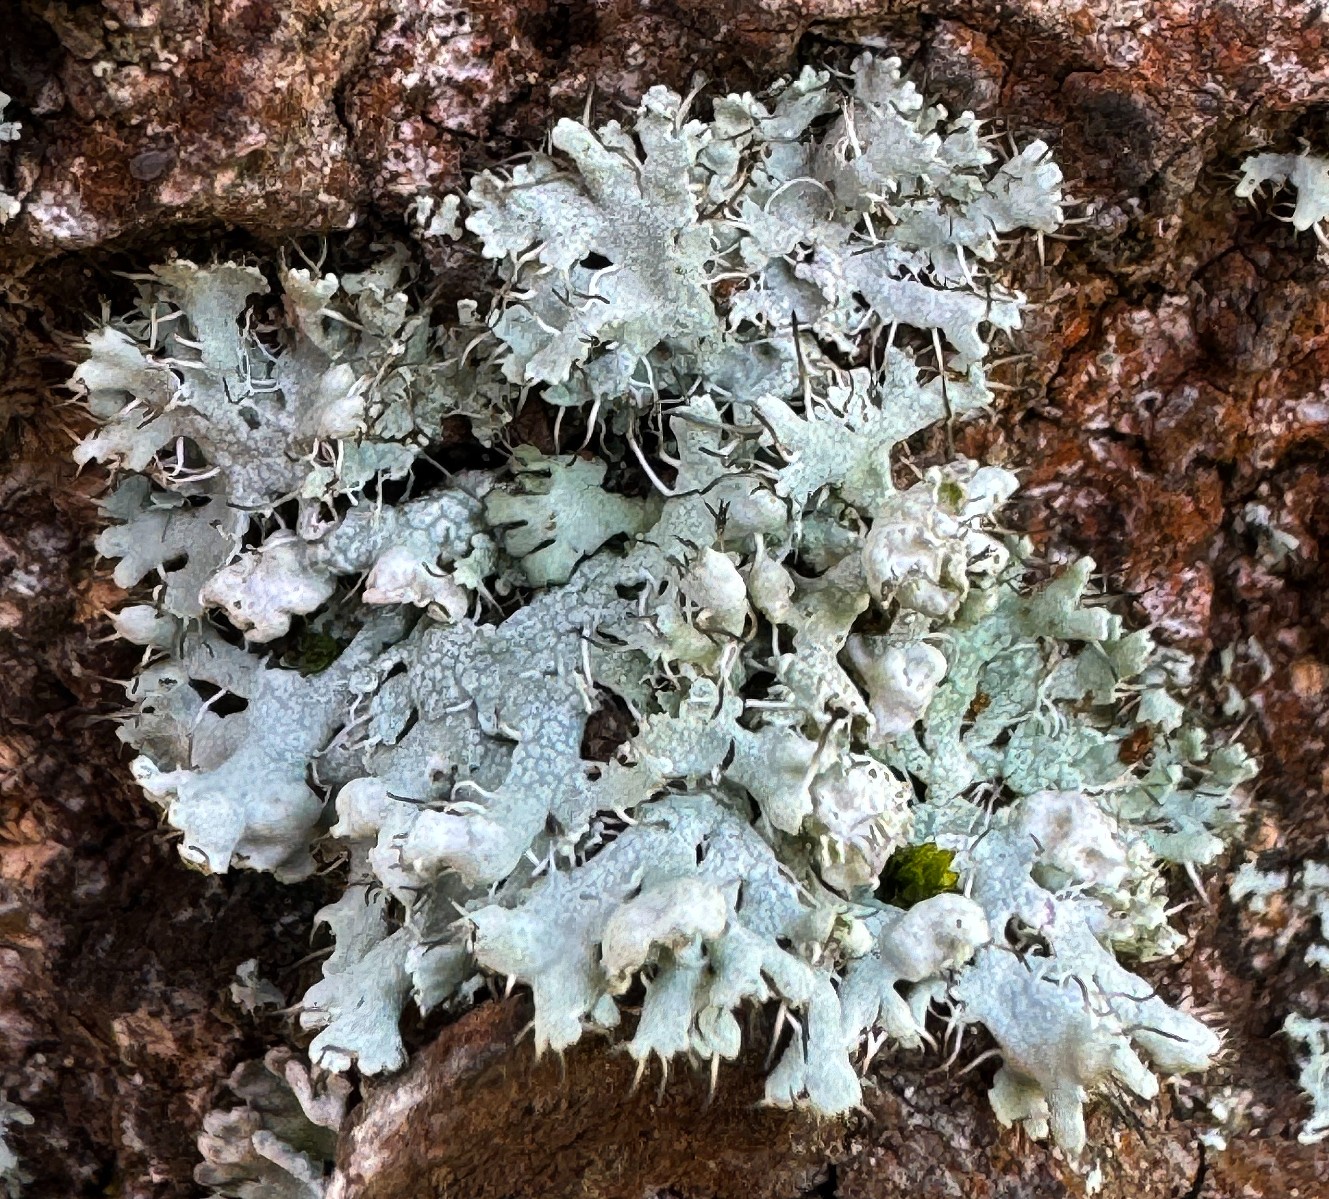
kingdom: Fungi
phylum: Ascomycota
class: Lecanoromycetes
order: Caliciales
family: Physciaceae
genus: Physcia
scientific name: Physcia adscendens
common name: hætte-rosetlav
